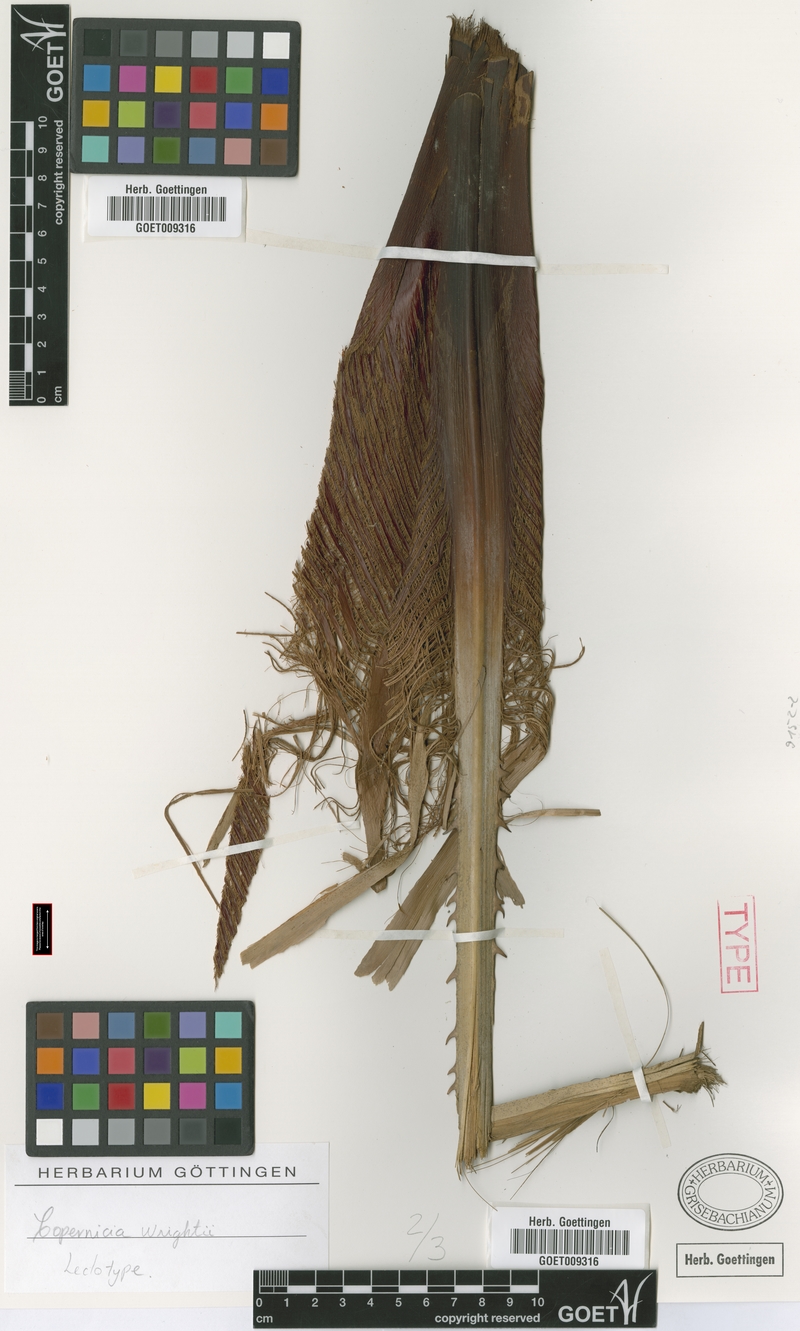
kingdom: Plantae
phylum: Tracheophyta
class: Liliopsida
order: Arecales
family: Arecaceae
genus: Acoelorraphe
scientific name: Acoelorraphe wrightii
